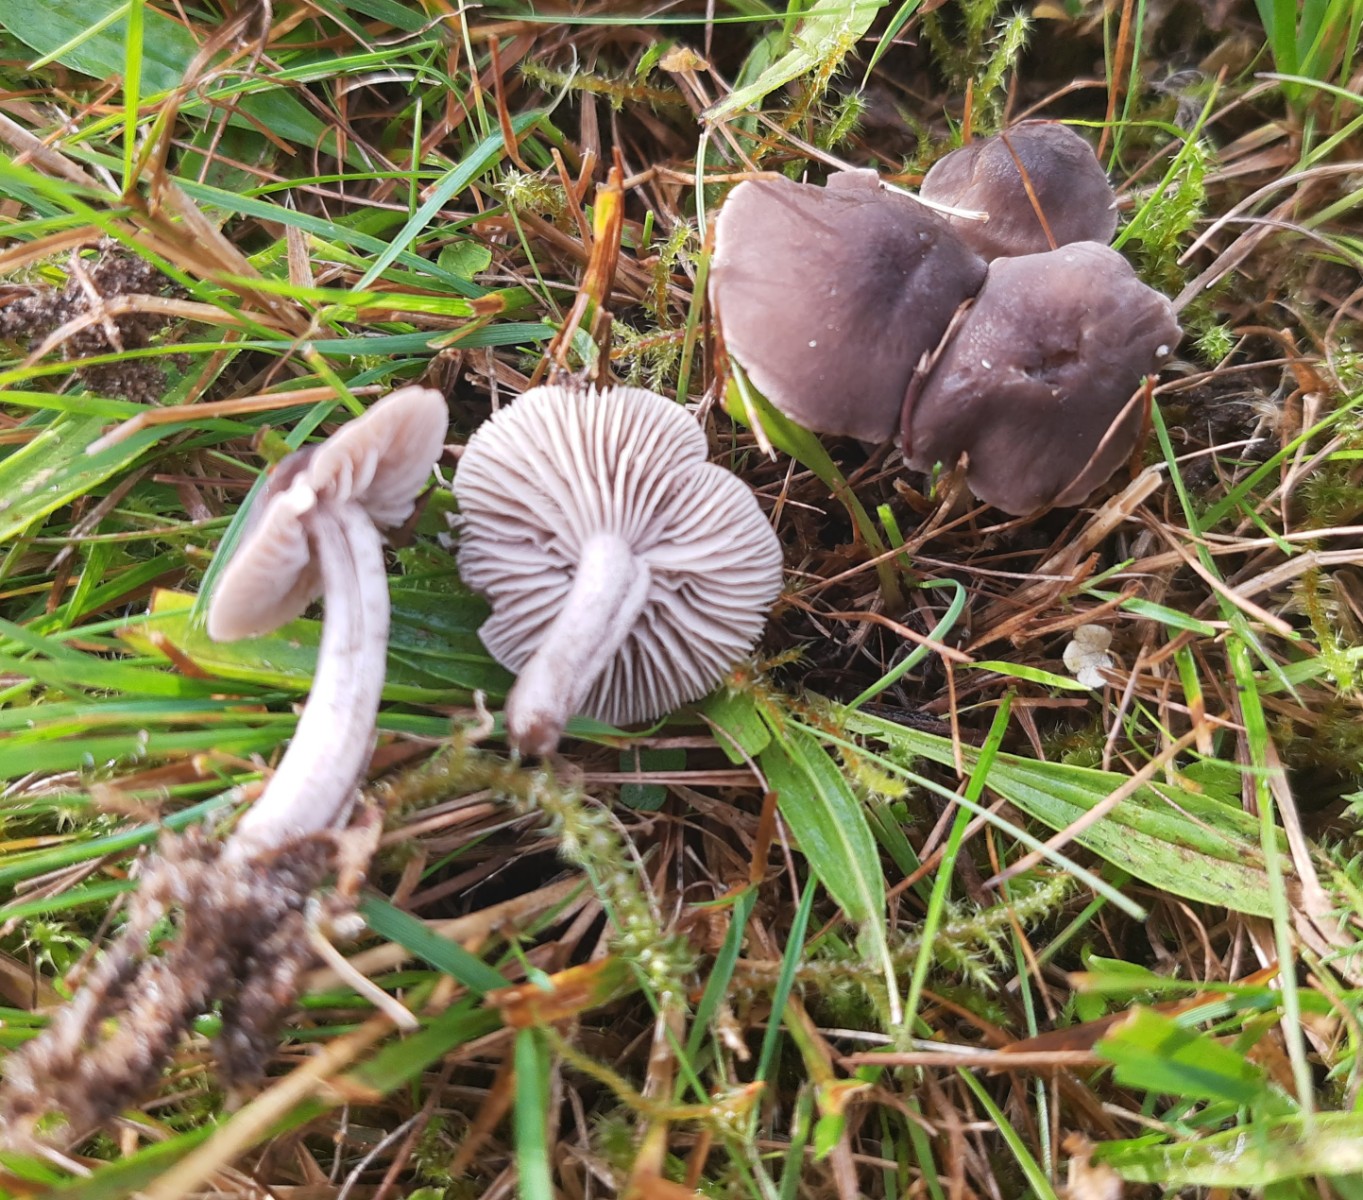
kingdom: Fungi
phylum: Basidiomycota
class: Agaricomycetes
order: Agaricales
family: Tricholomataceae
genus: Dermoloma
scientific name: Dermoloma cuneifolium
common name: eng-nonnehat
